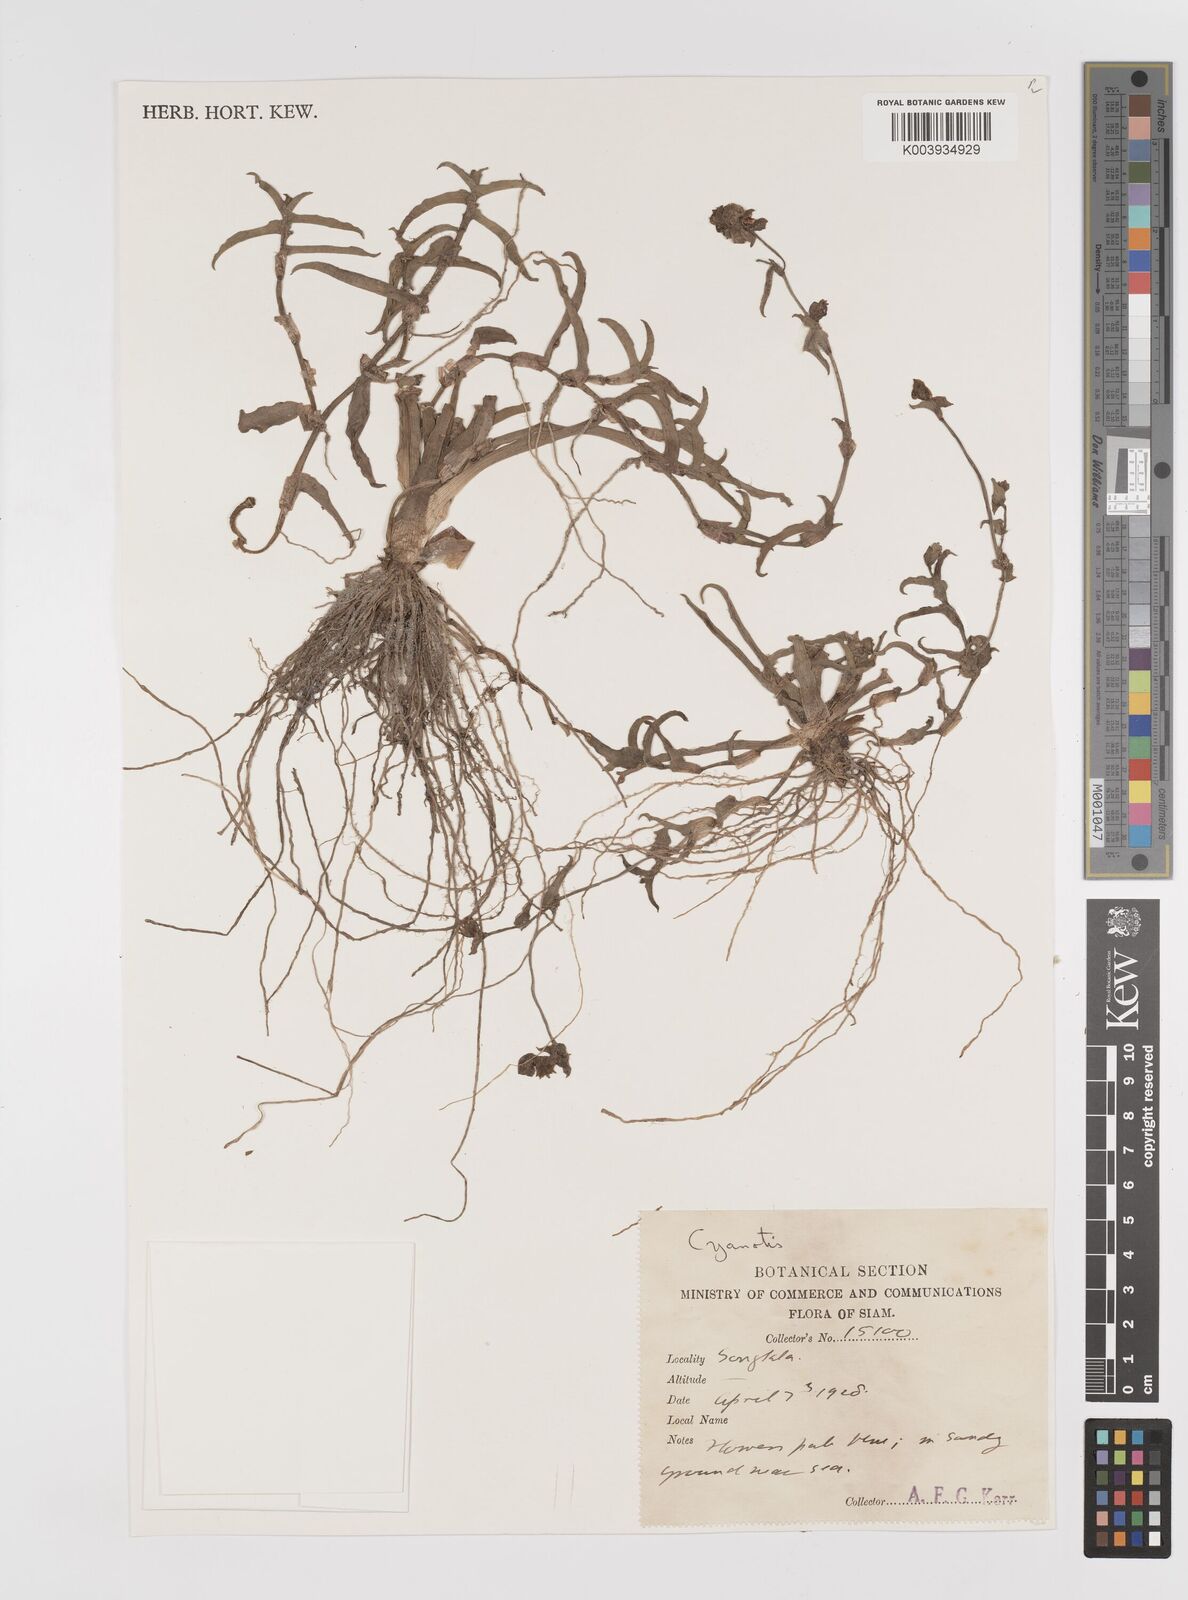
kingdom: Plantae
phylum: Tracheophyta
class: Liliopsida
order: Commelinales
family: Commelinaceae
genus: Cyanotis
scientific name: Cyanotis tuberosa
